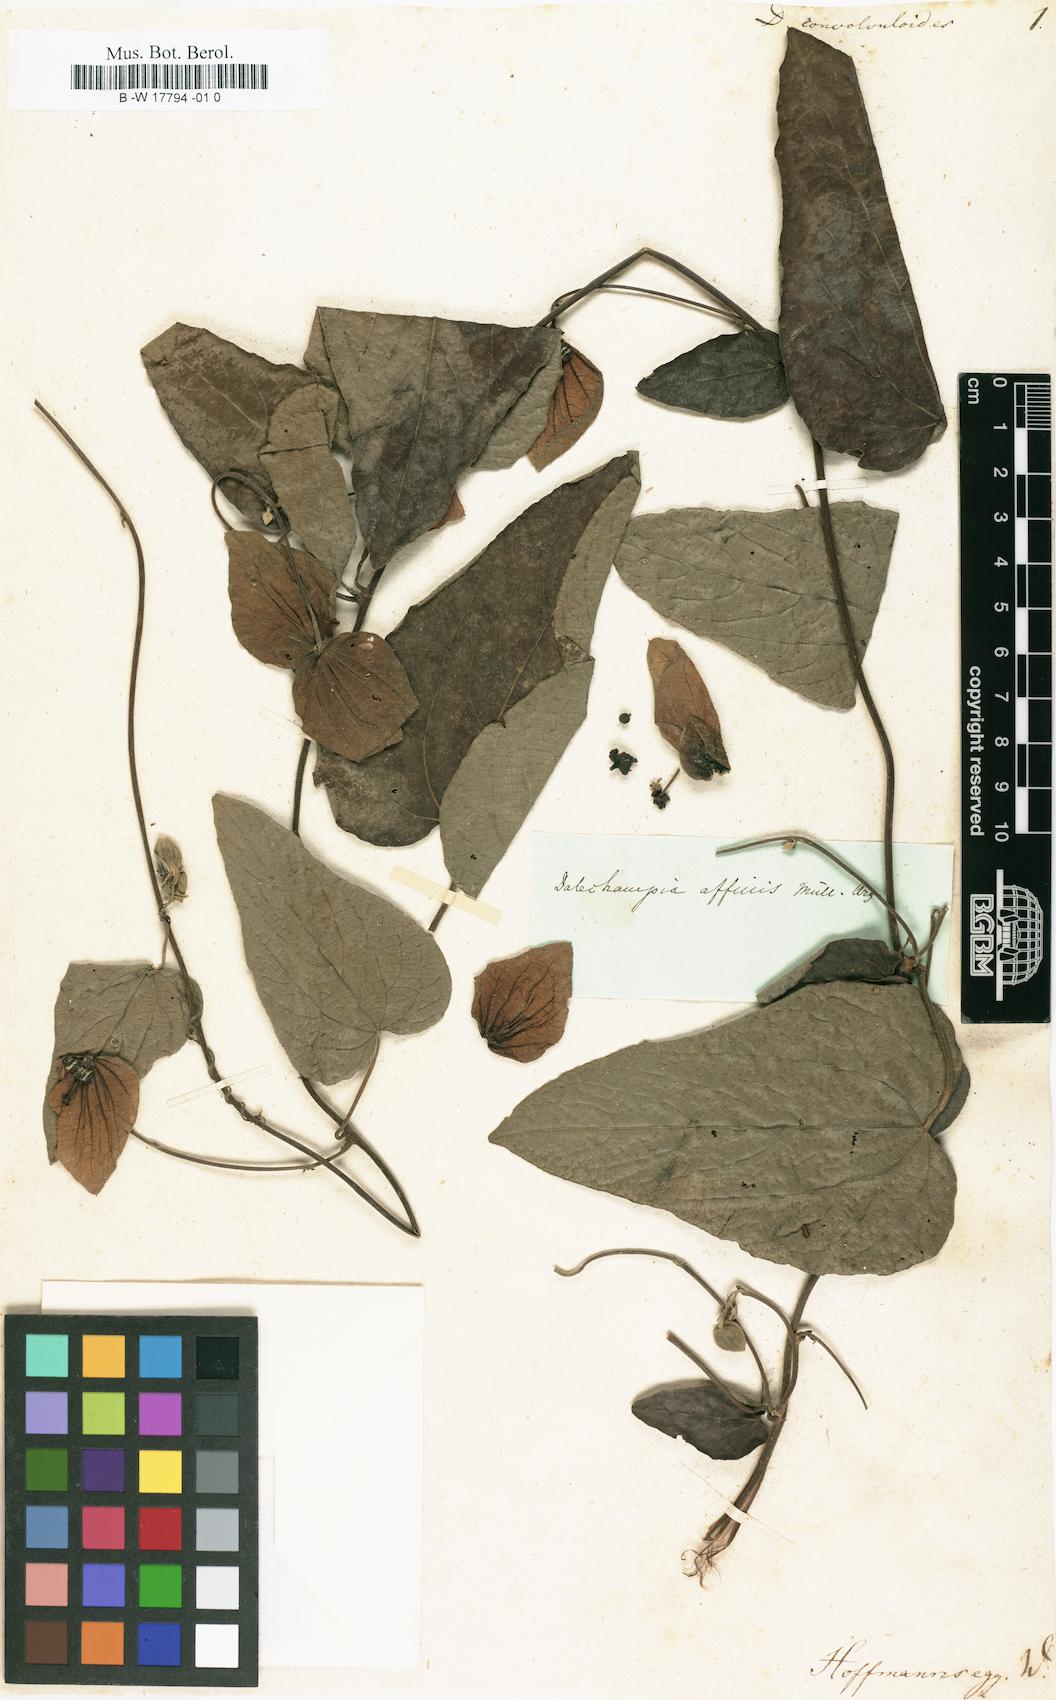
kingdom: Plantae
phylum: Tracheophyta
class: Magnoliopsida
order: Malpighiales
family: Euphorbiaceae
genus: Dalechampia
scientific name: Dalechampia convolvuloides
